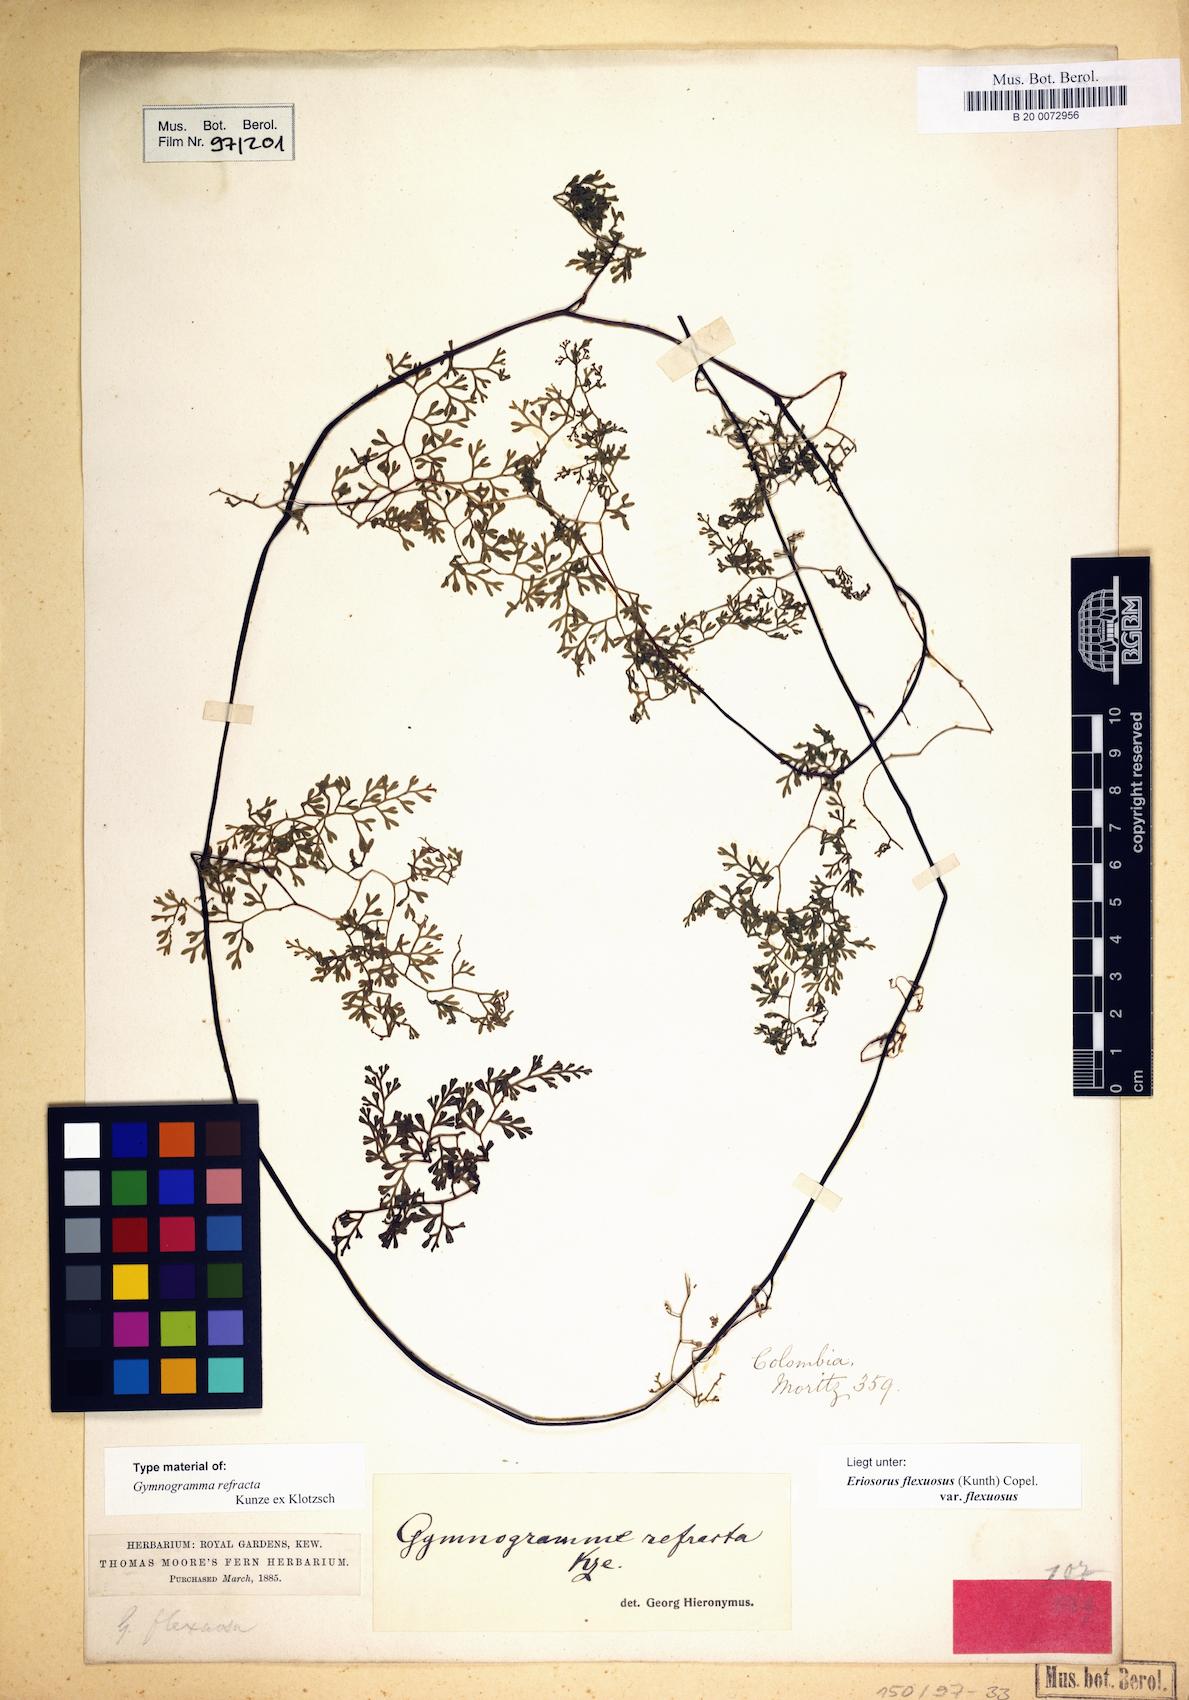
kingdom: Plantae
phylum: Tracheophyta
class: Polypodiopsida
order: Polypodiales
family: Pteridaceae
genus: Jamesonia
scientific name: Jamesonia flexuosa
